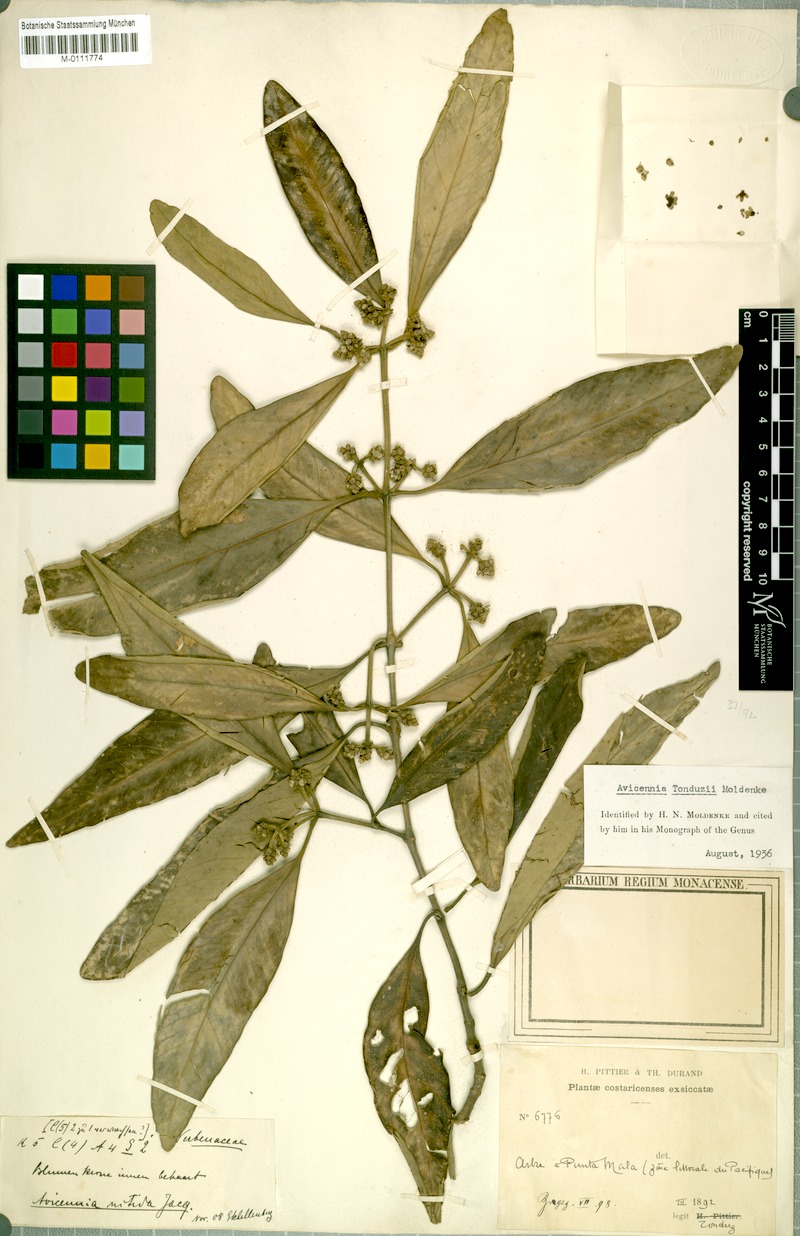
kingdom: Plantae
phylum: Tracheophyta
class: Magnoliopsida
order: Lamiales
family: Acanthaceae
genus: Avicennia
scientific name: Avicennia bicolor
